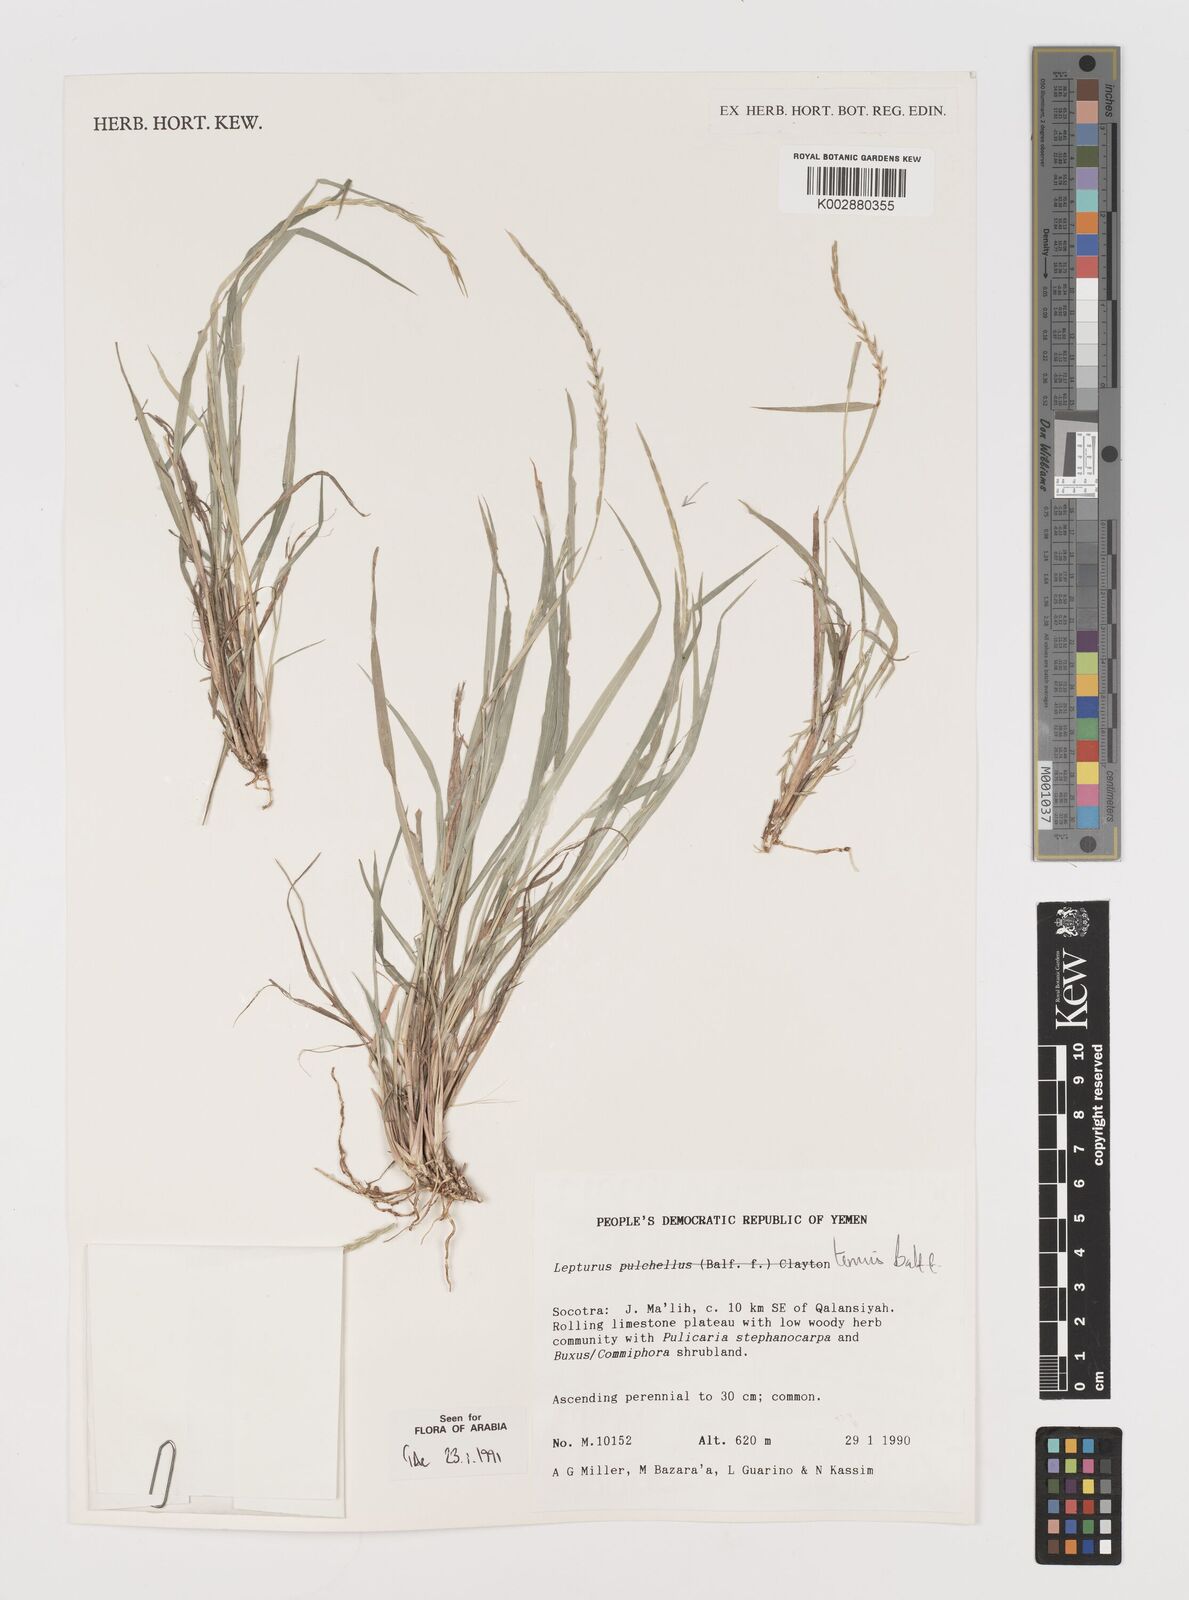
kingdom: Plantae
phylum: Tracheophyta
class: Liliopsida
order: Poales
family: Poaceae
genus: Lepturus
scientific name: Lepturus tenuis
